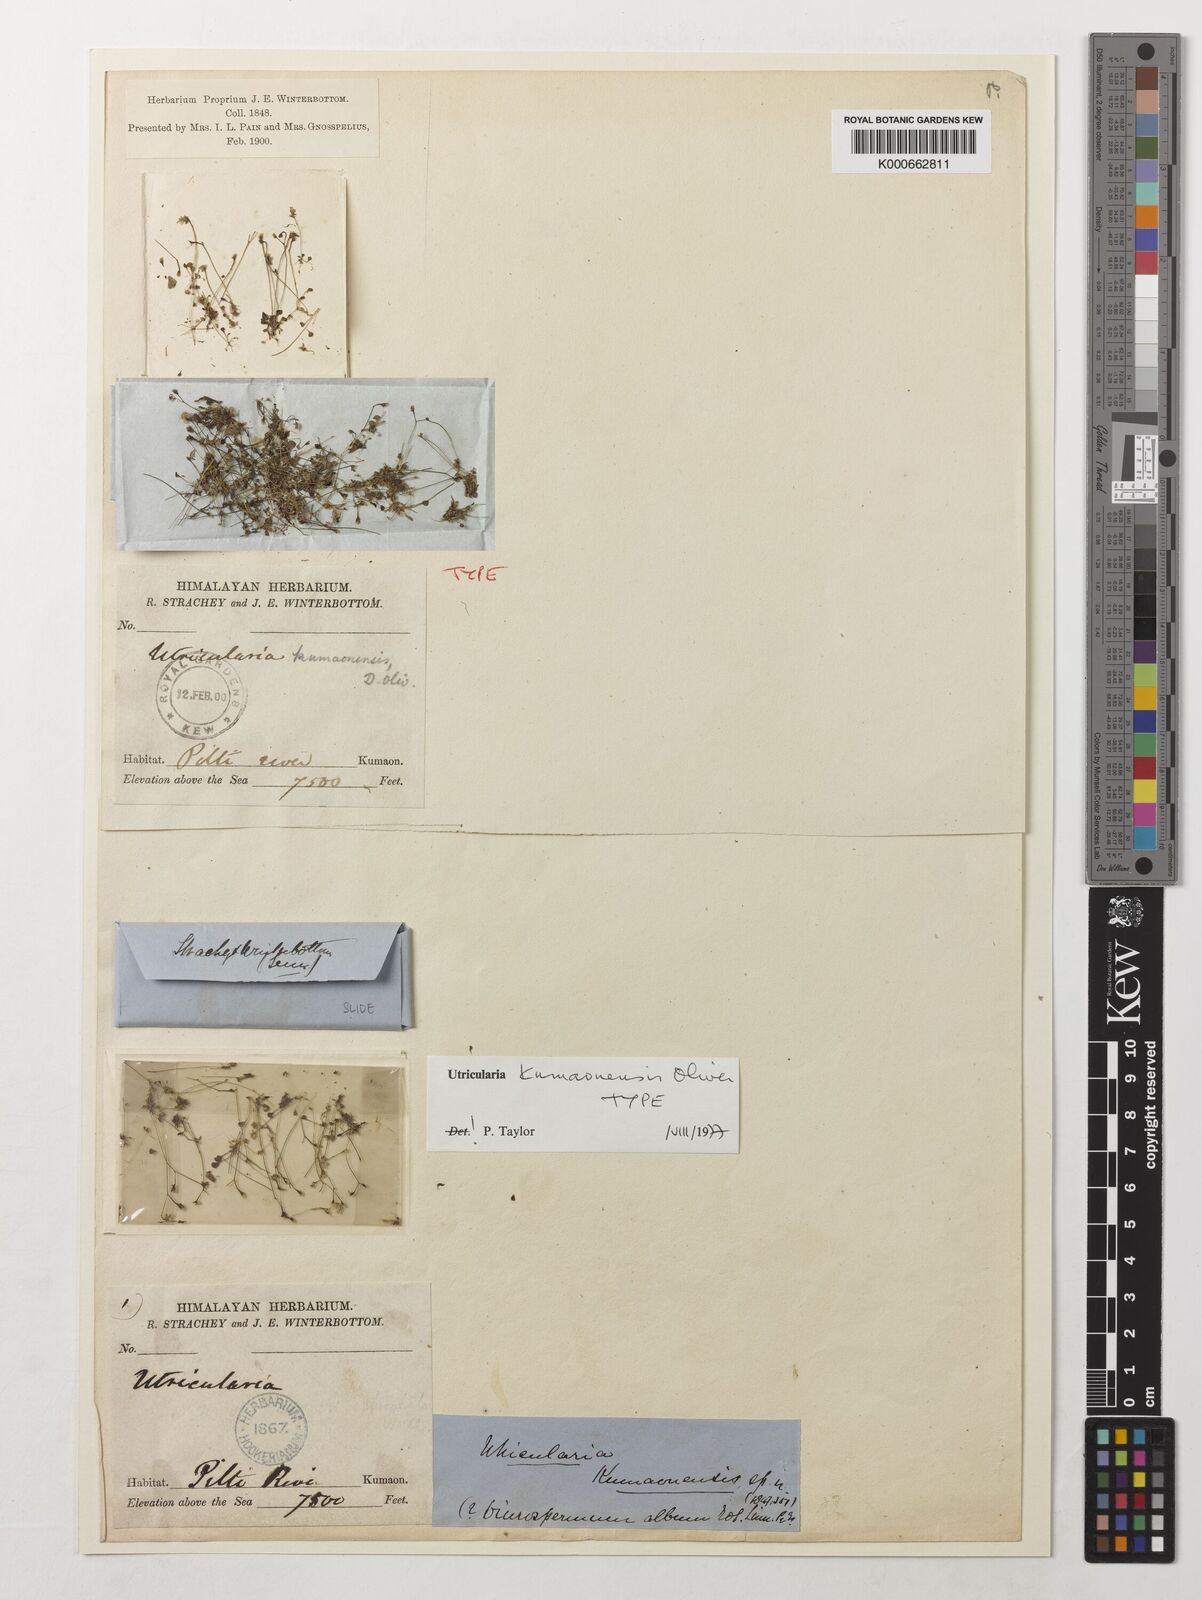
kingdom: Plantae
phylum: Tracheophyta
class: Magnoliopsida
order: Lamiales
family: Lentibulariaceae
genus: Utricularia
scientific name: Utricularia kumaonensis
